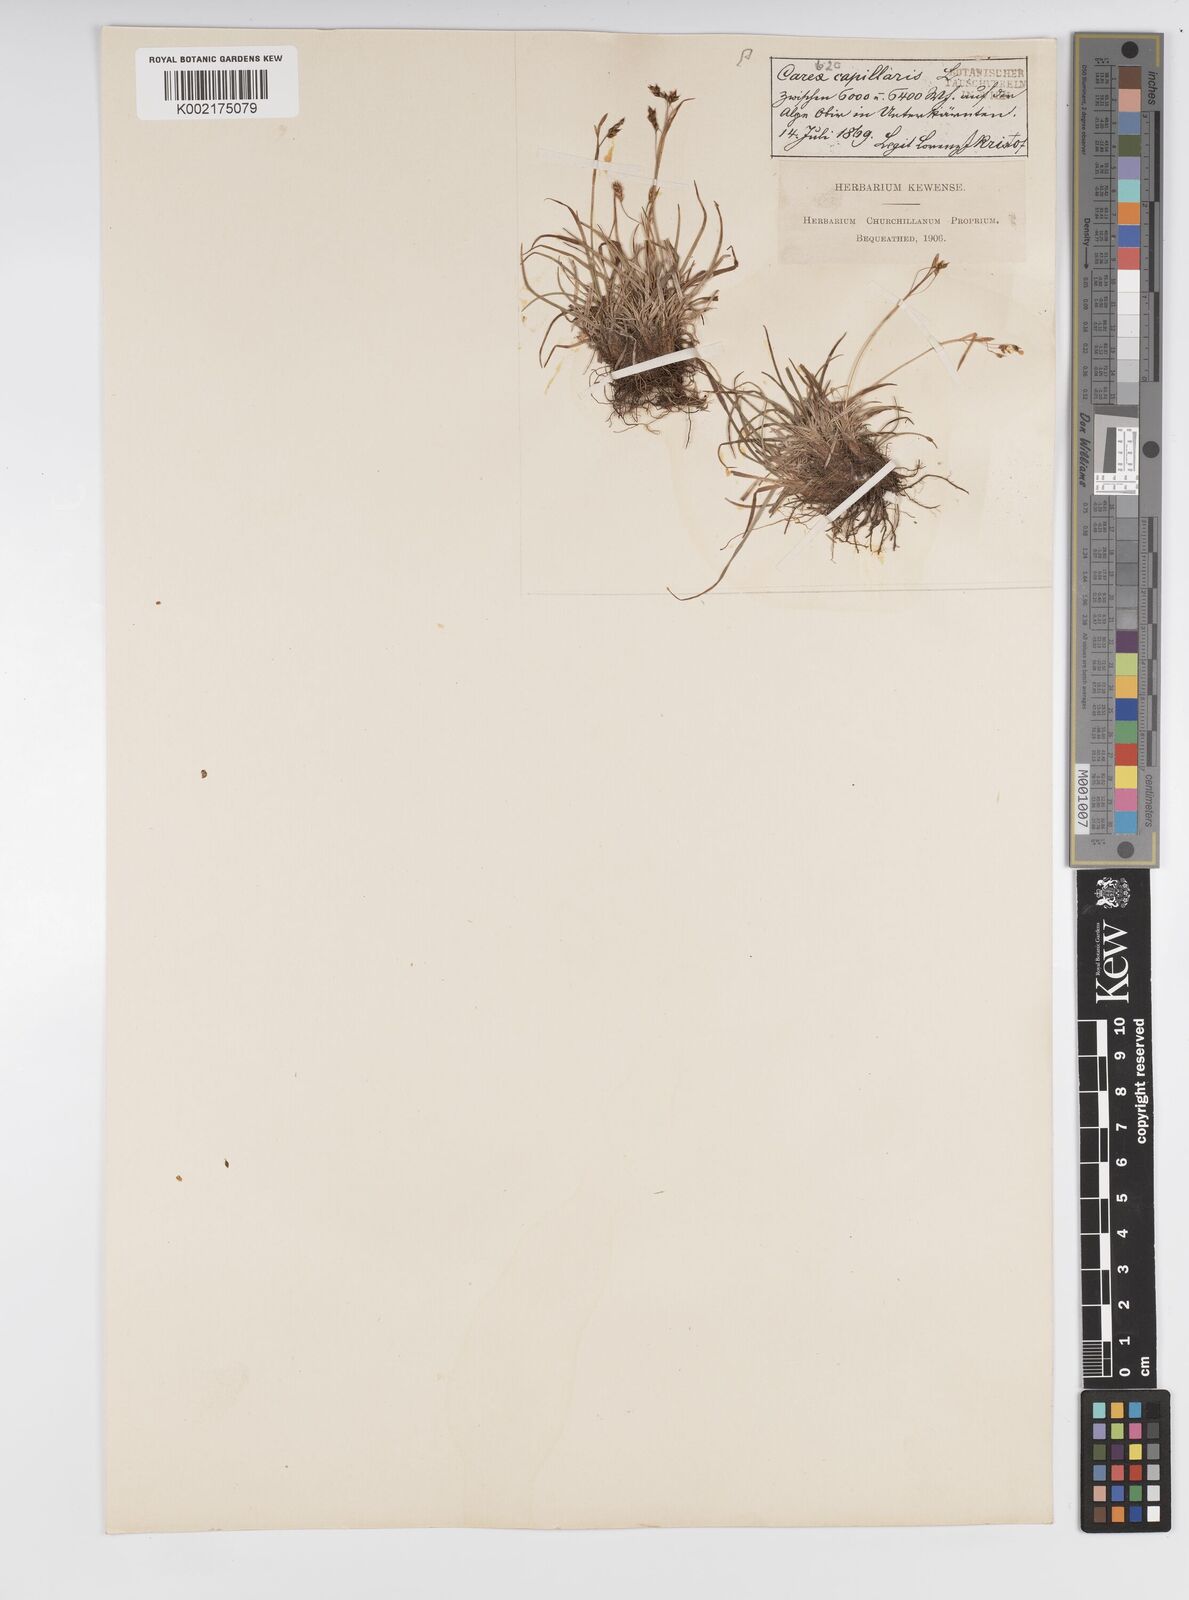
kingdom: Plantae
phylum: Tracheophyta
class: Liliopsida
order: Poales
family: Cyperaceae
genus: Carex
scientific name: Carex capillaris
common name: Hair sedge
